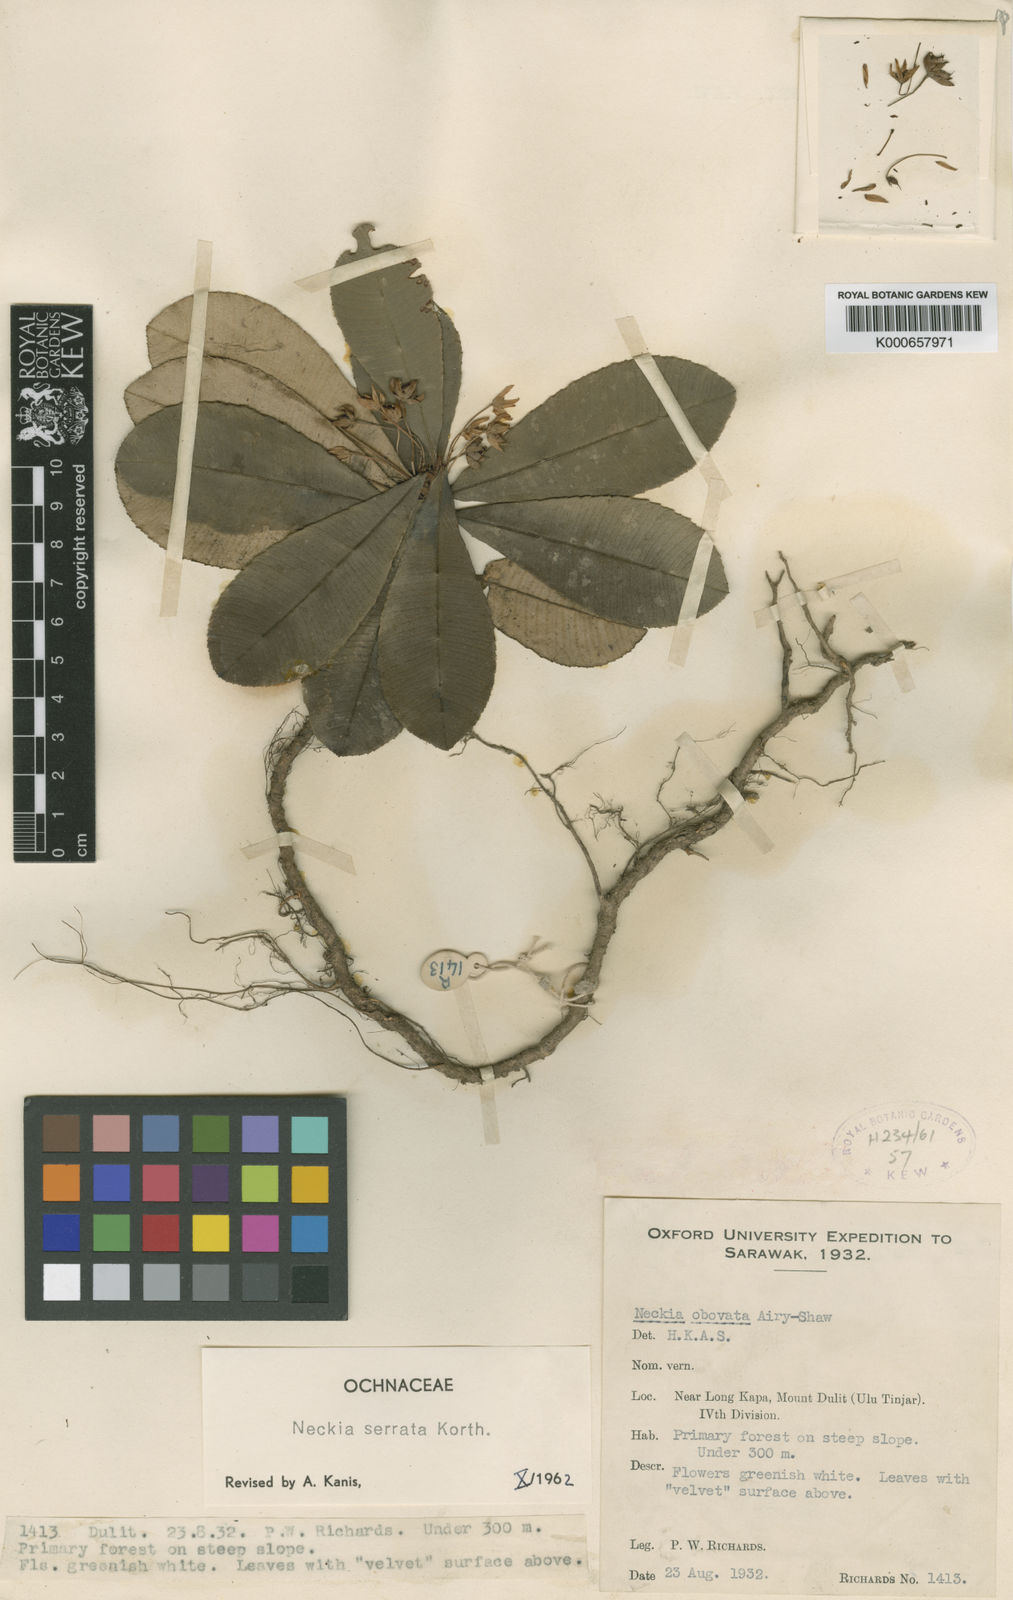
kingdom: Plantae
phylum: Tracheophyta
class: Magnoliopsida
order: Malpighiales
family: Ochnaceae
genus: Neckia
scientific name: Neckia serrata
